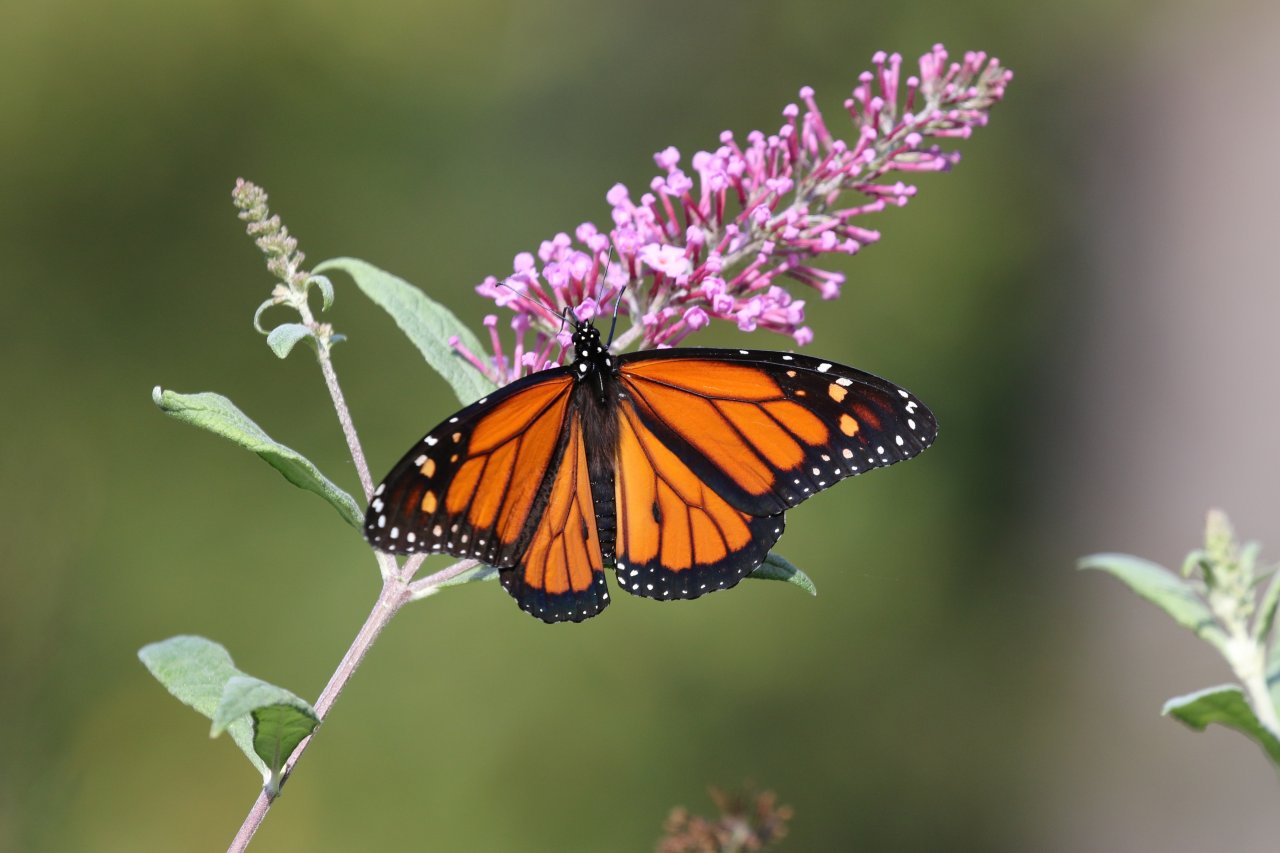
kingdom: Animalia
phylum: Arthropoda
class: Insecta
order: Lepidoptera
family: Nymphalidae
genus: Danaus
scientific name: Danaus plexippus
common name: Monarch
